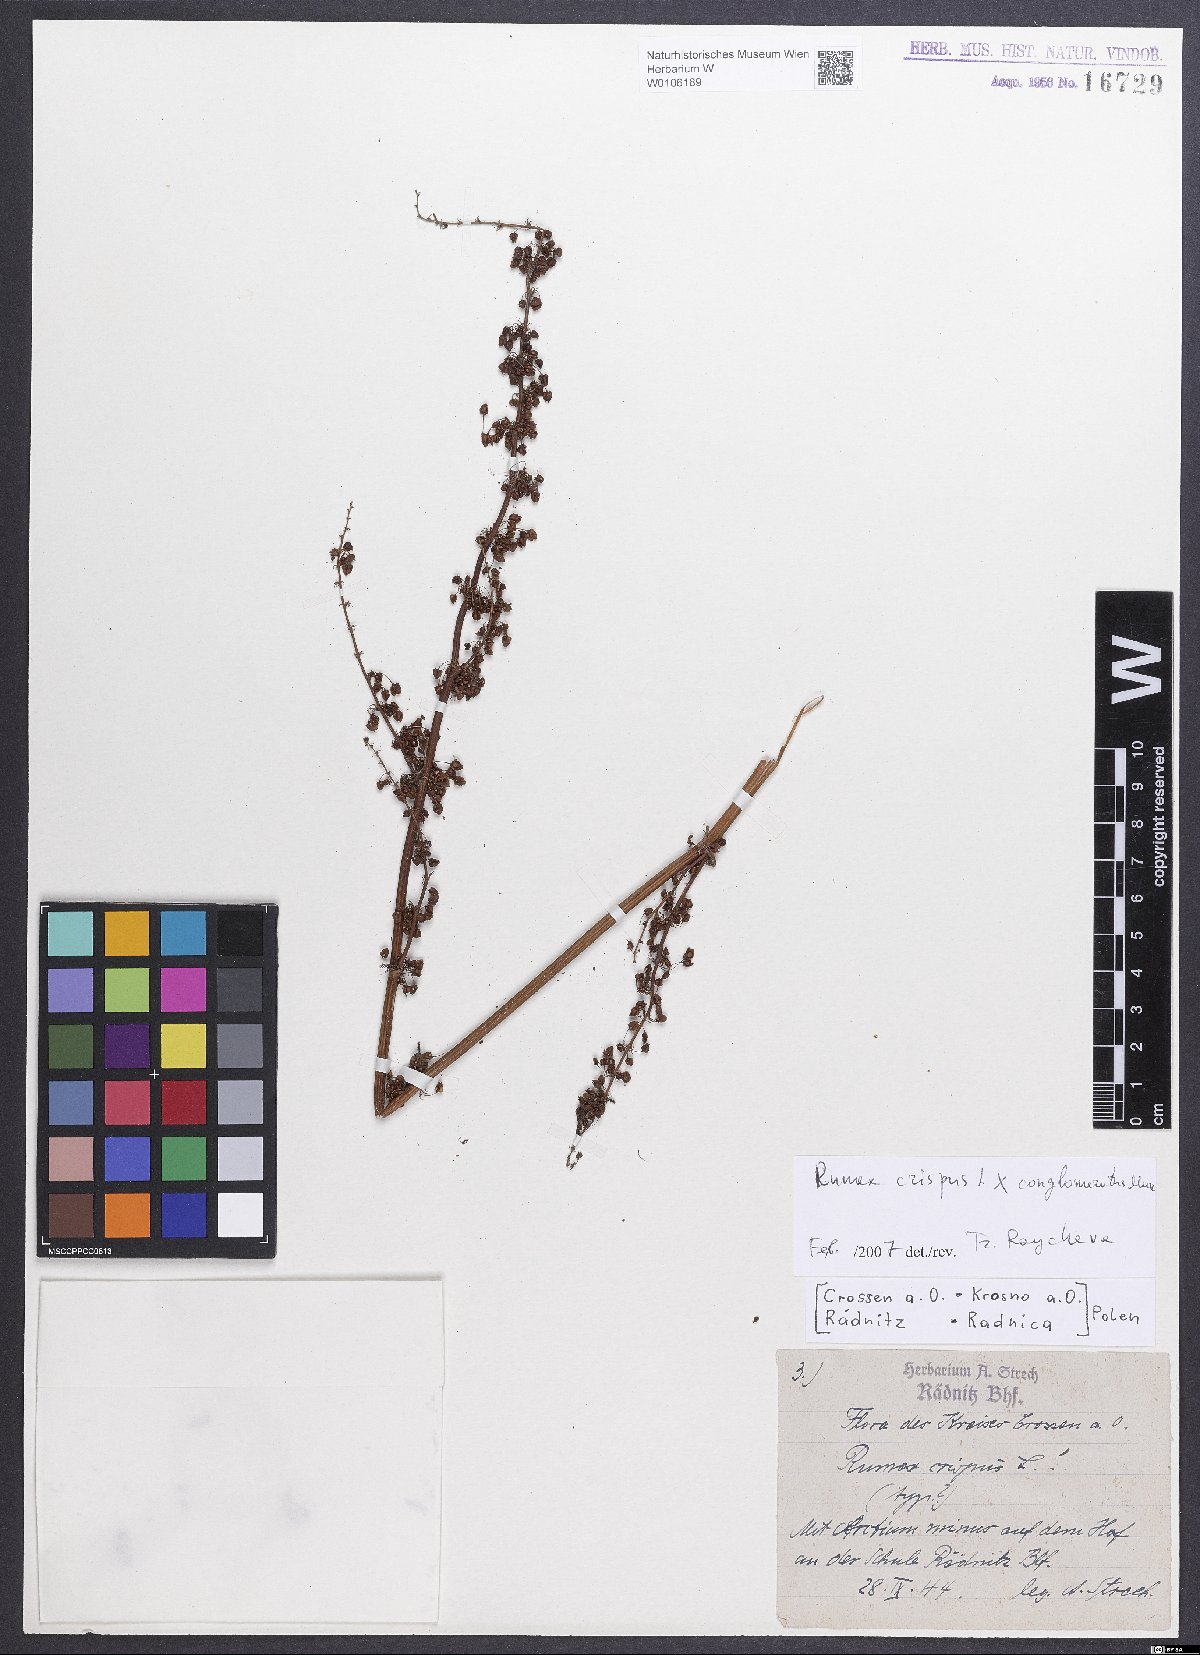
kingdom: Plantae
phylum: Tracheophyta
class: Magnoliopsida
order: Caryophyllales
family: Polygonaceae
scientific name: Polygonaceae
